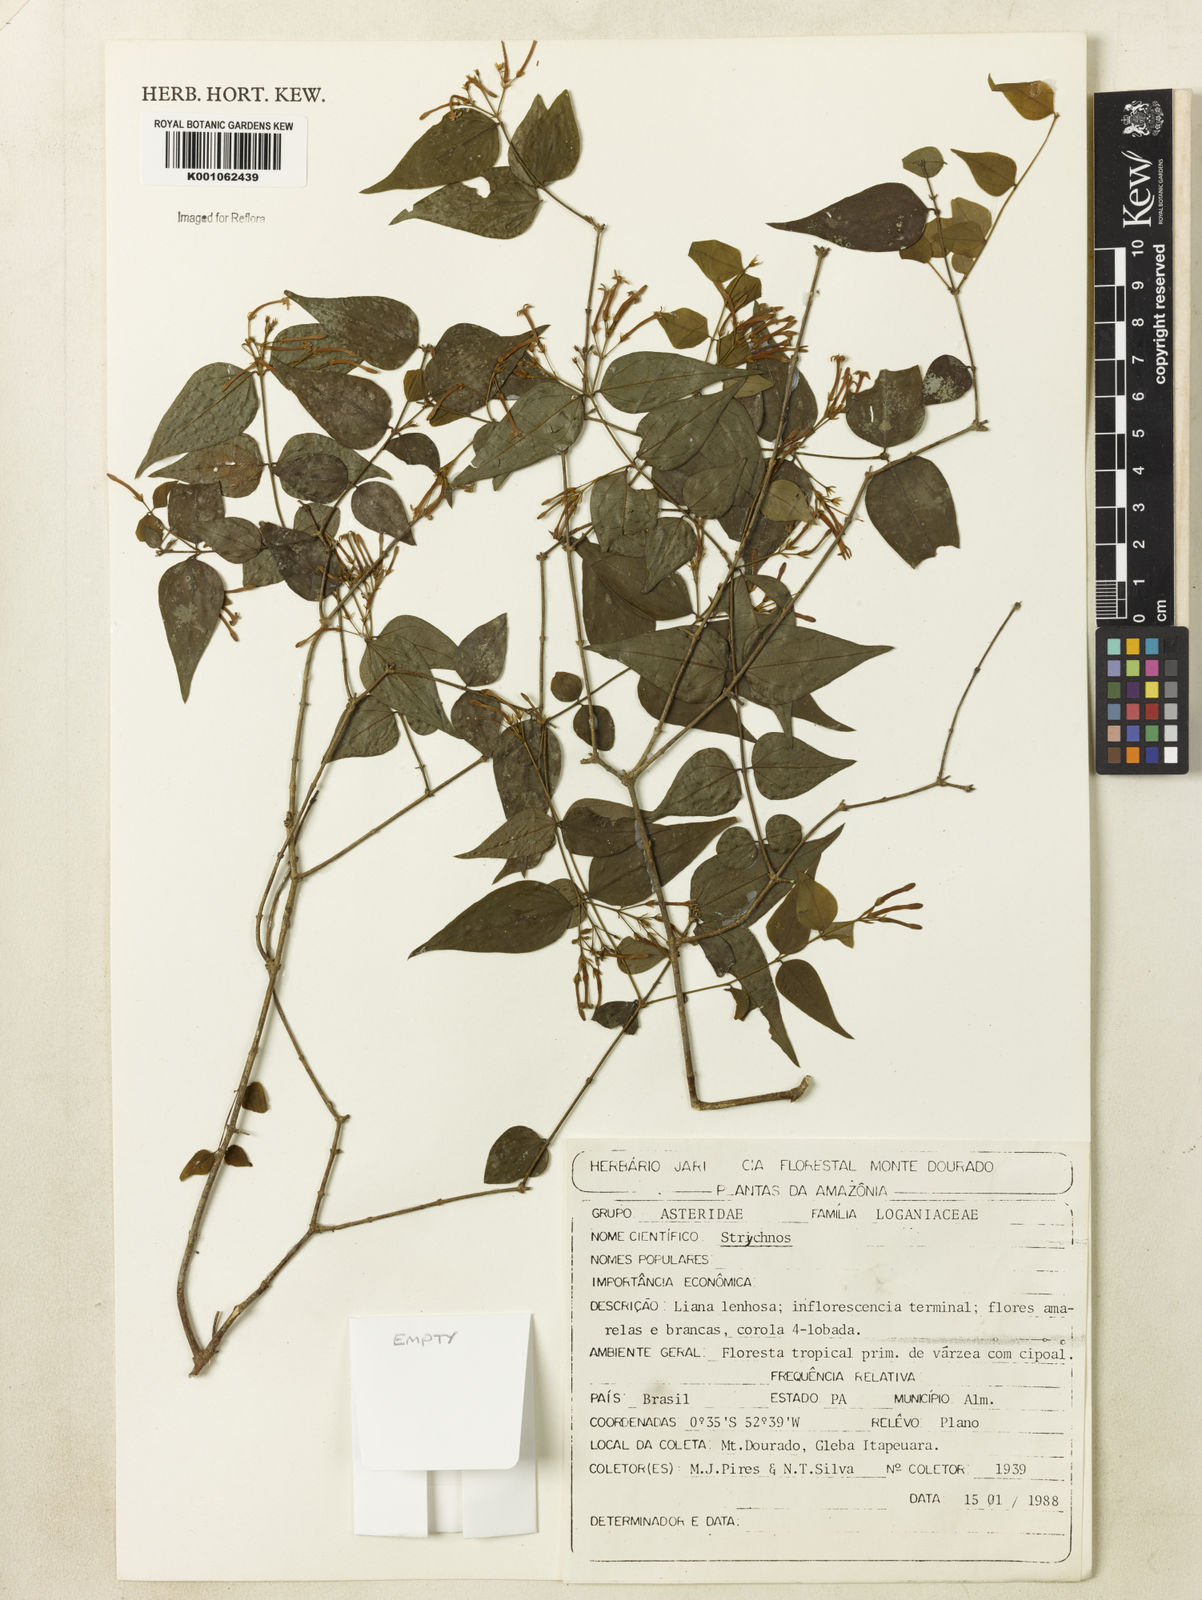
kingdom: Plantae
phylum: Tracheophyta
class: Magnoliopsida
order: Gentianales
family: Loganiaceae
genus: Strychnos
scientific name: Strychnos medeola
